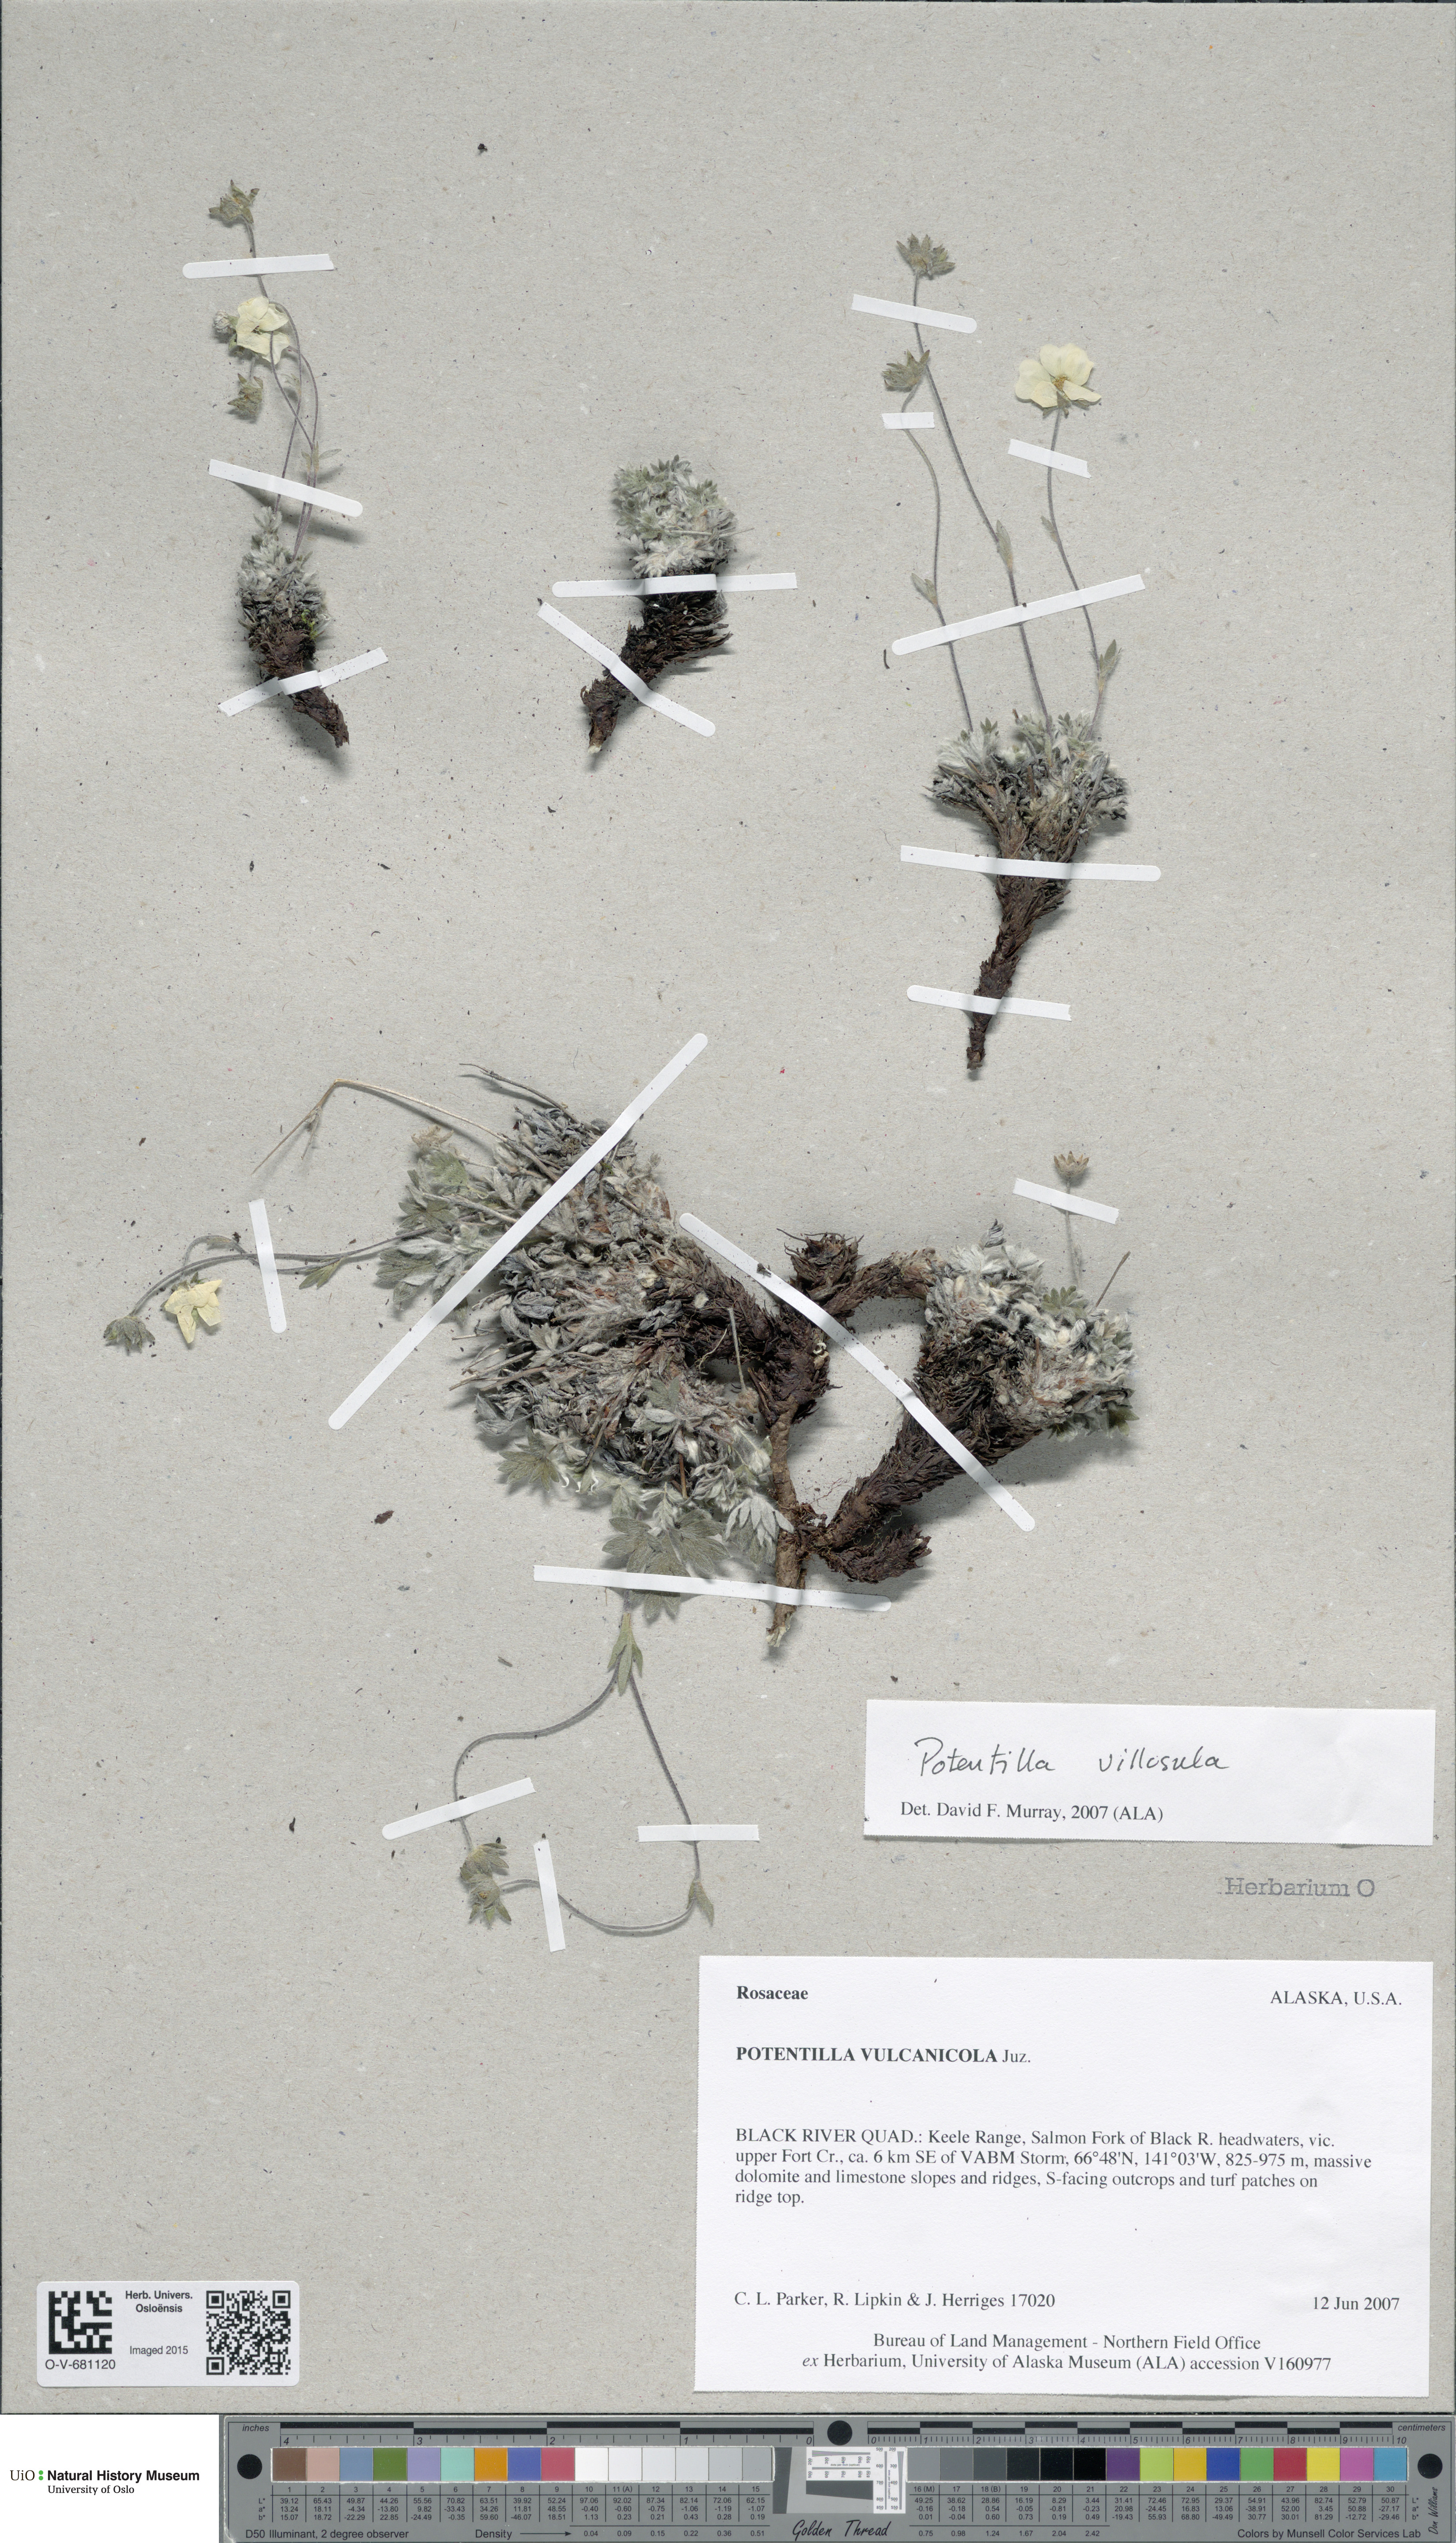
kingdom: Plantae
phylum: Tracheophyta
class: Magnoliopsida
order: Rosales
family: Rosaceae
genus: Potentilla
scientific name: Potentilla villosula
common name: Finely villous cinquefoil
